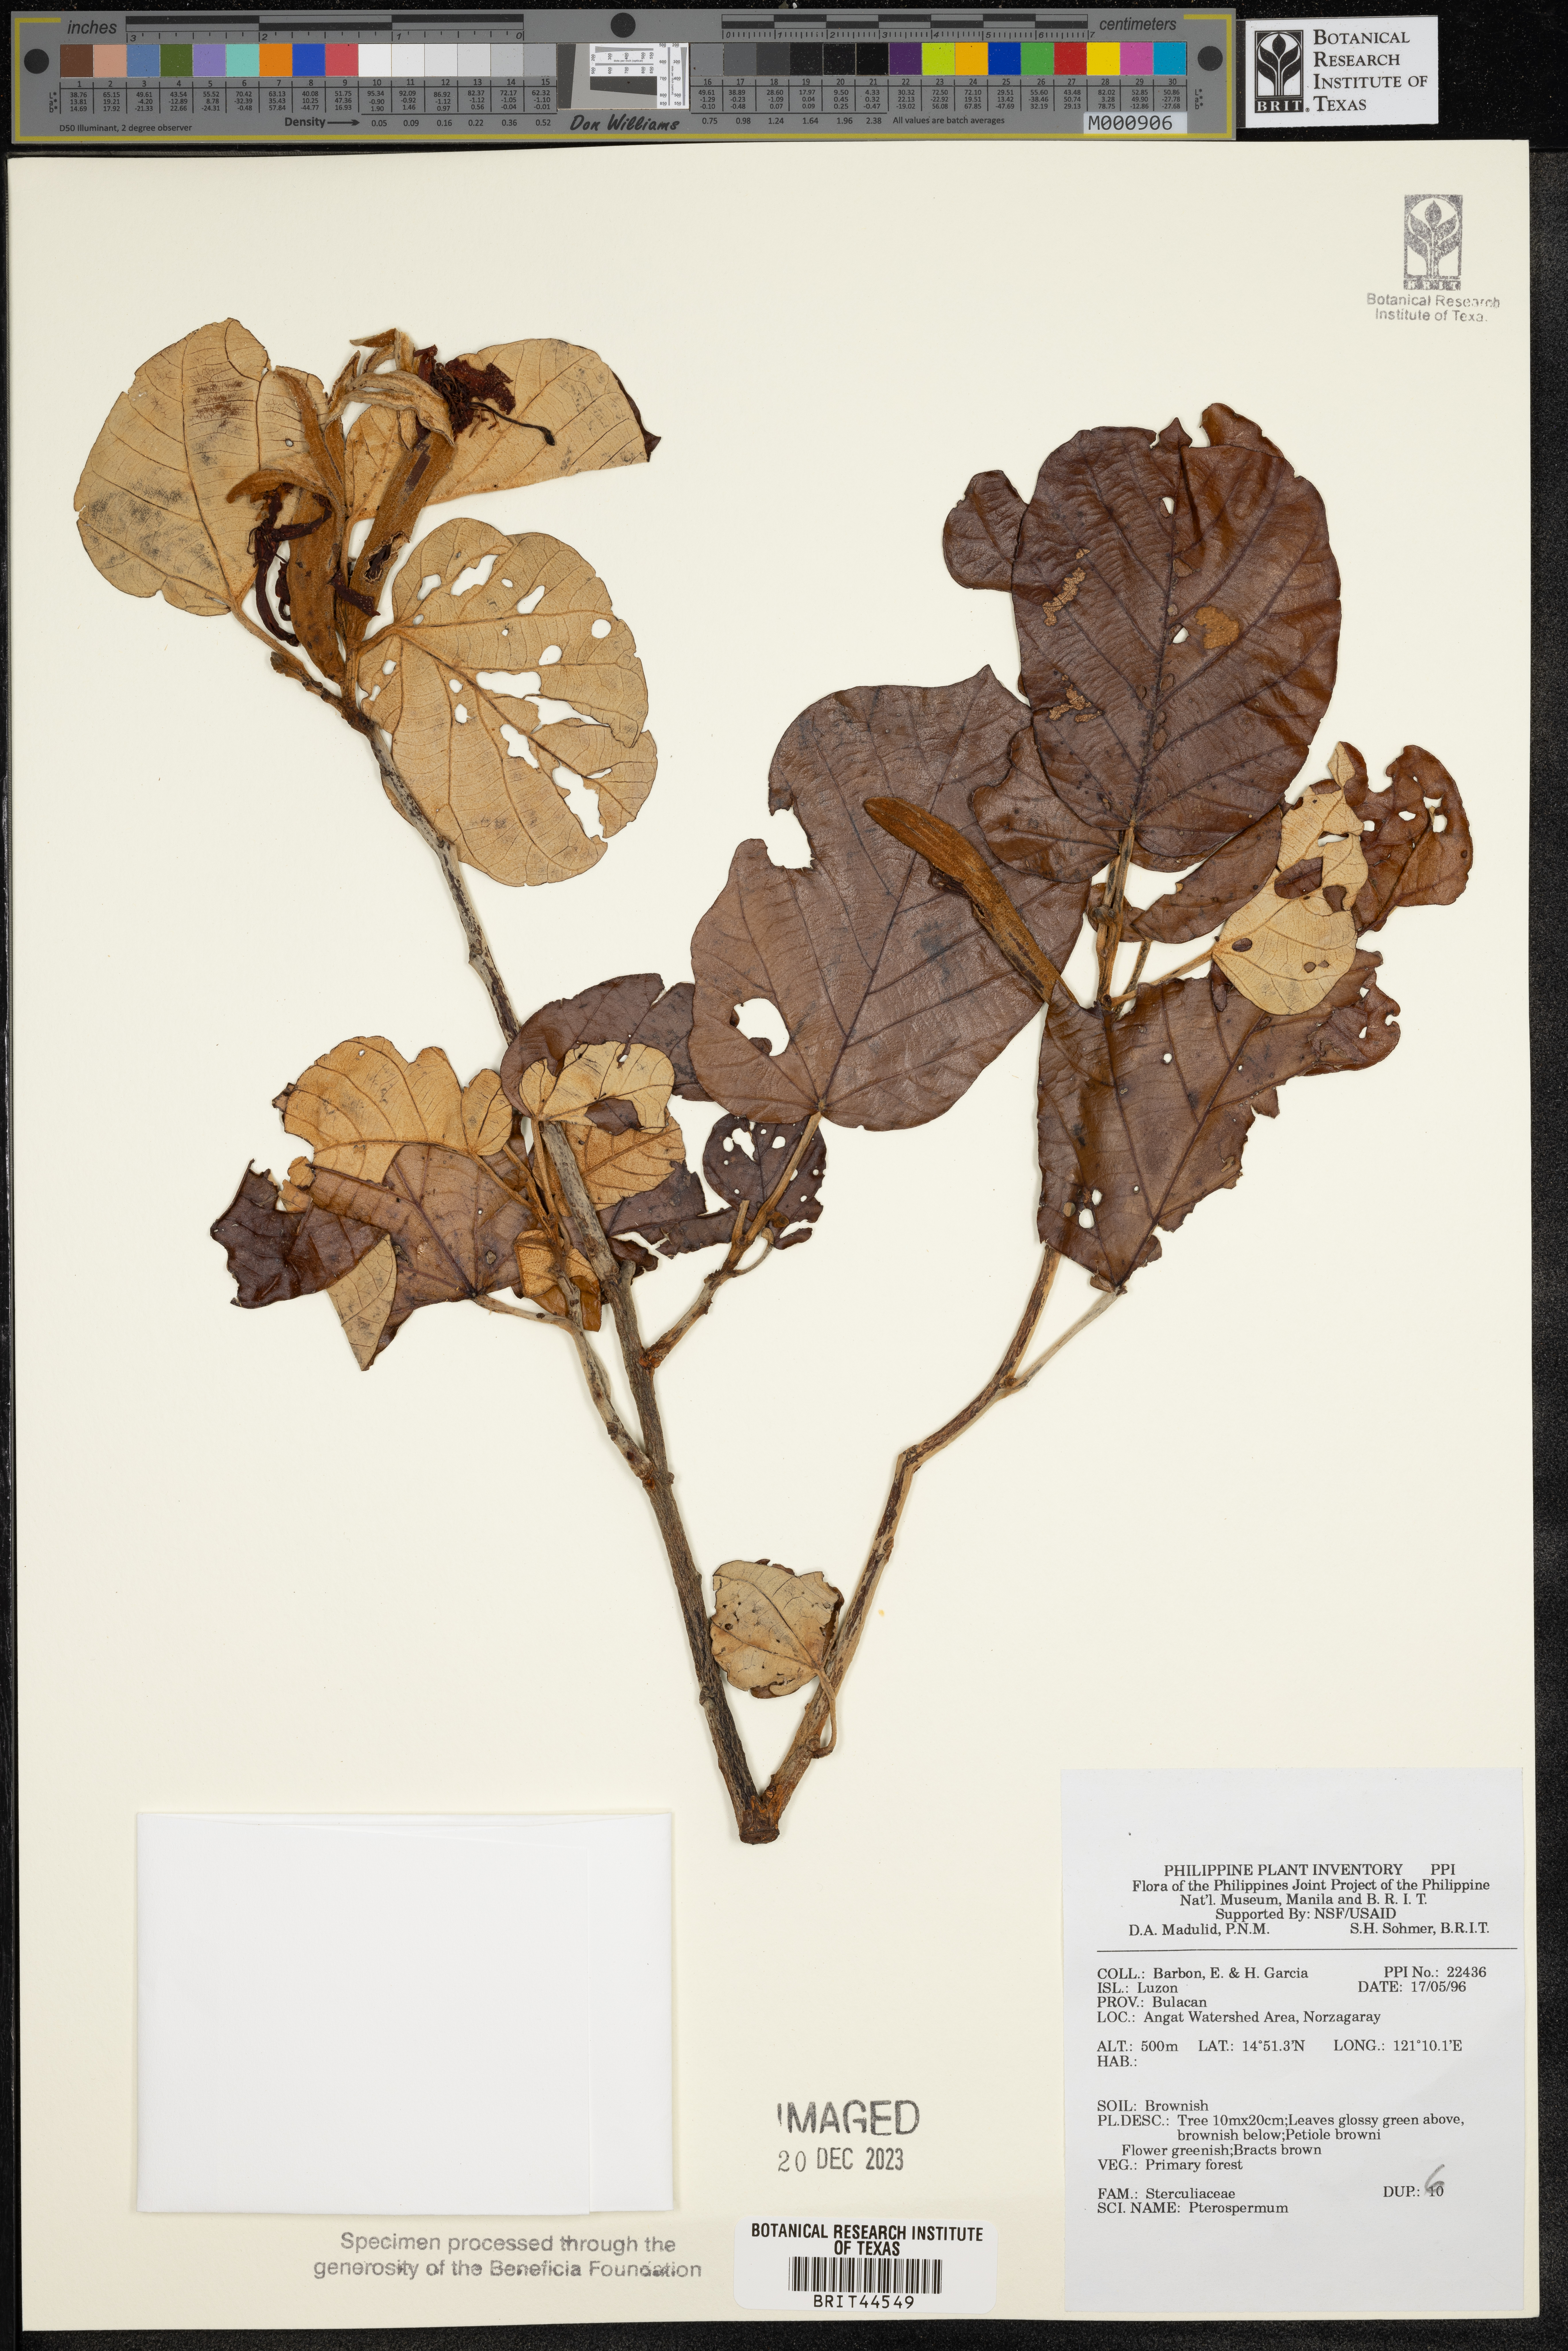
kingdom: Plantae
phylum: Tracheophyta
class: Magnoliopsida
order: Malvales
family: Malvaceae
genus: Pterospermum
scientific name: Pterospermum
